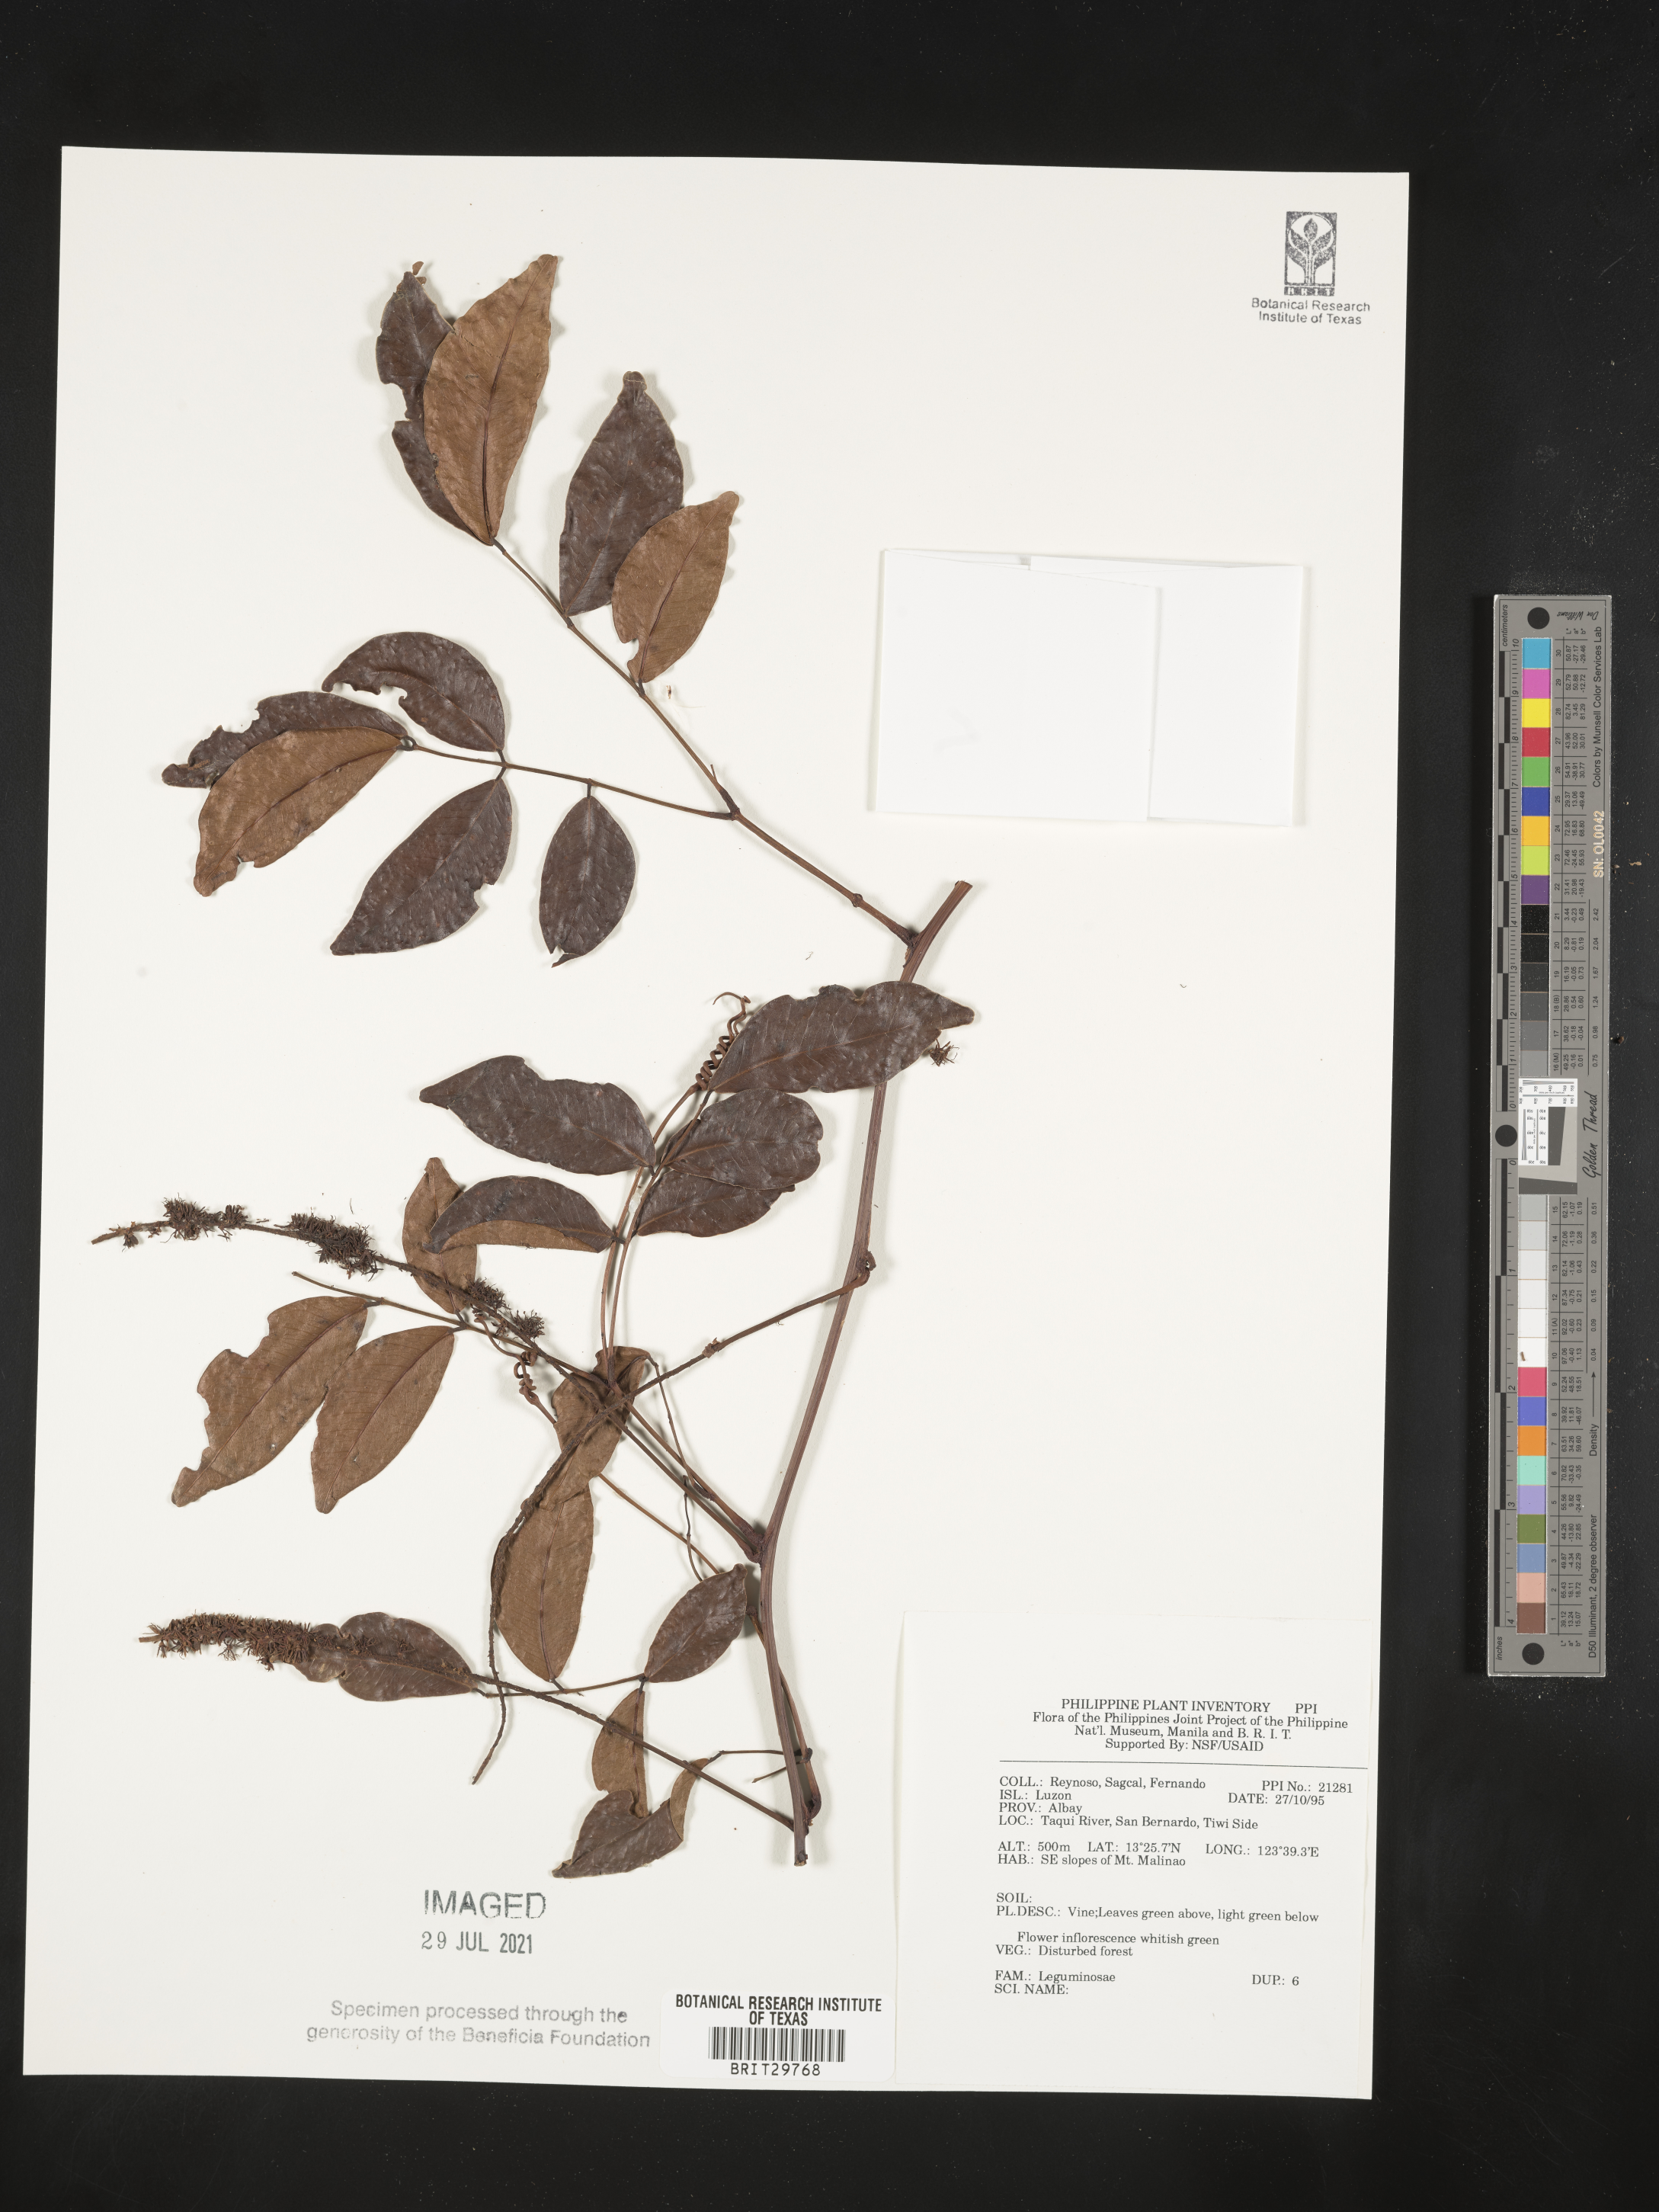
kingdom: Plantae
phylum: Tracheophyta
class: Magnoliopsida
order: Fabales
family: Fabaceae
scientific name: Fabaceae
